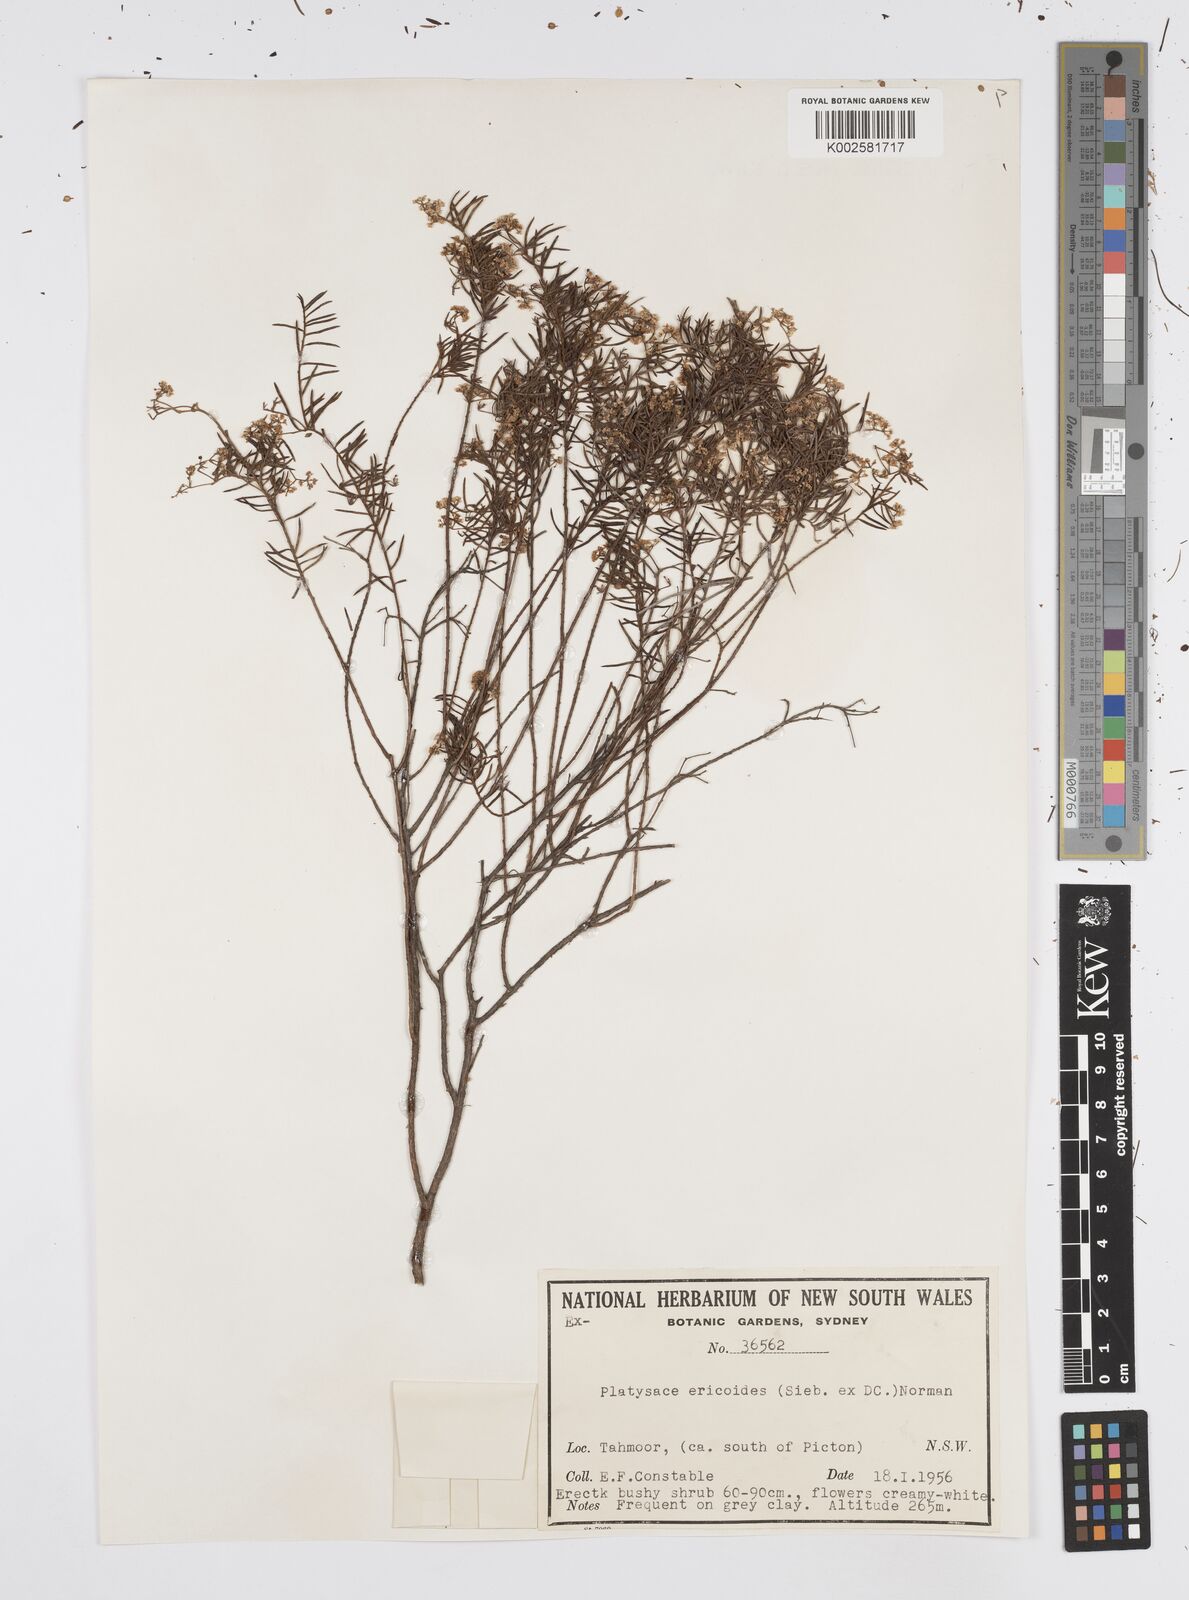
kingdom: Plantae
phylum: Tracheophyta
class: Magnoliopsida
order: Apiales
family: Apiaceae
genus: Platysace
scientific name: Platysace ericoides
